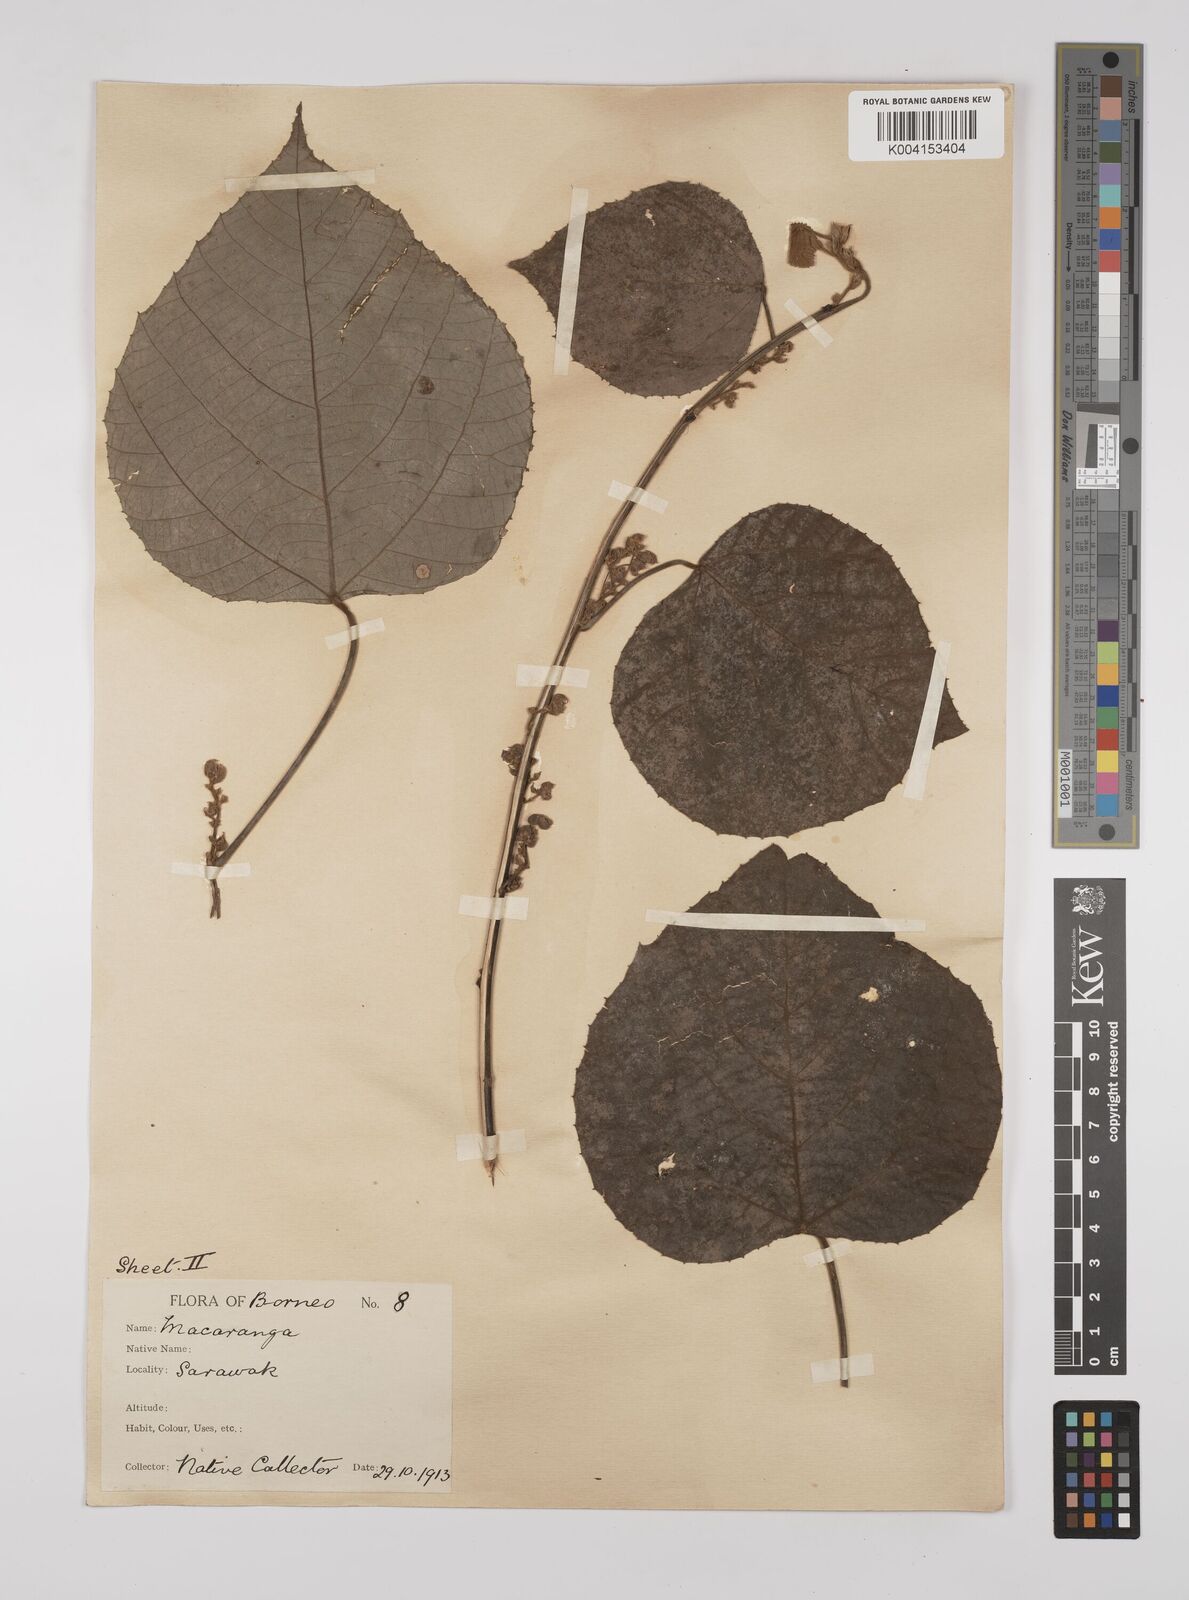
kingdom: Plantae
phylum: Tracheophyta
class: Magnoliopsida
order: Malpighiales
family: Euphorbiaceae
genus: Macaranga
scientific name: Macaranga trichocarpa
